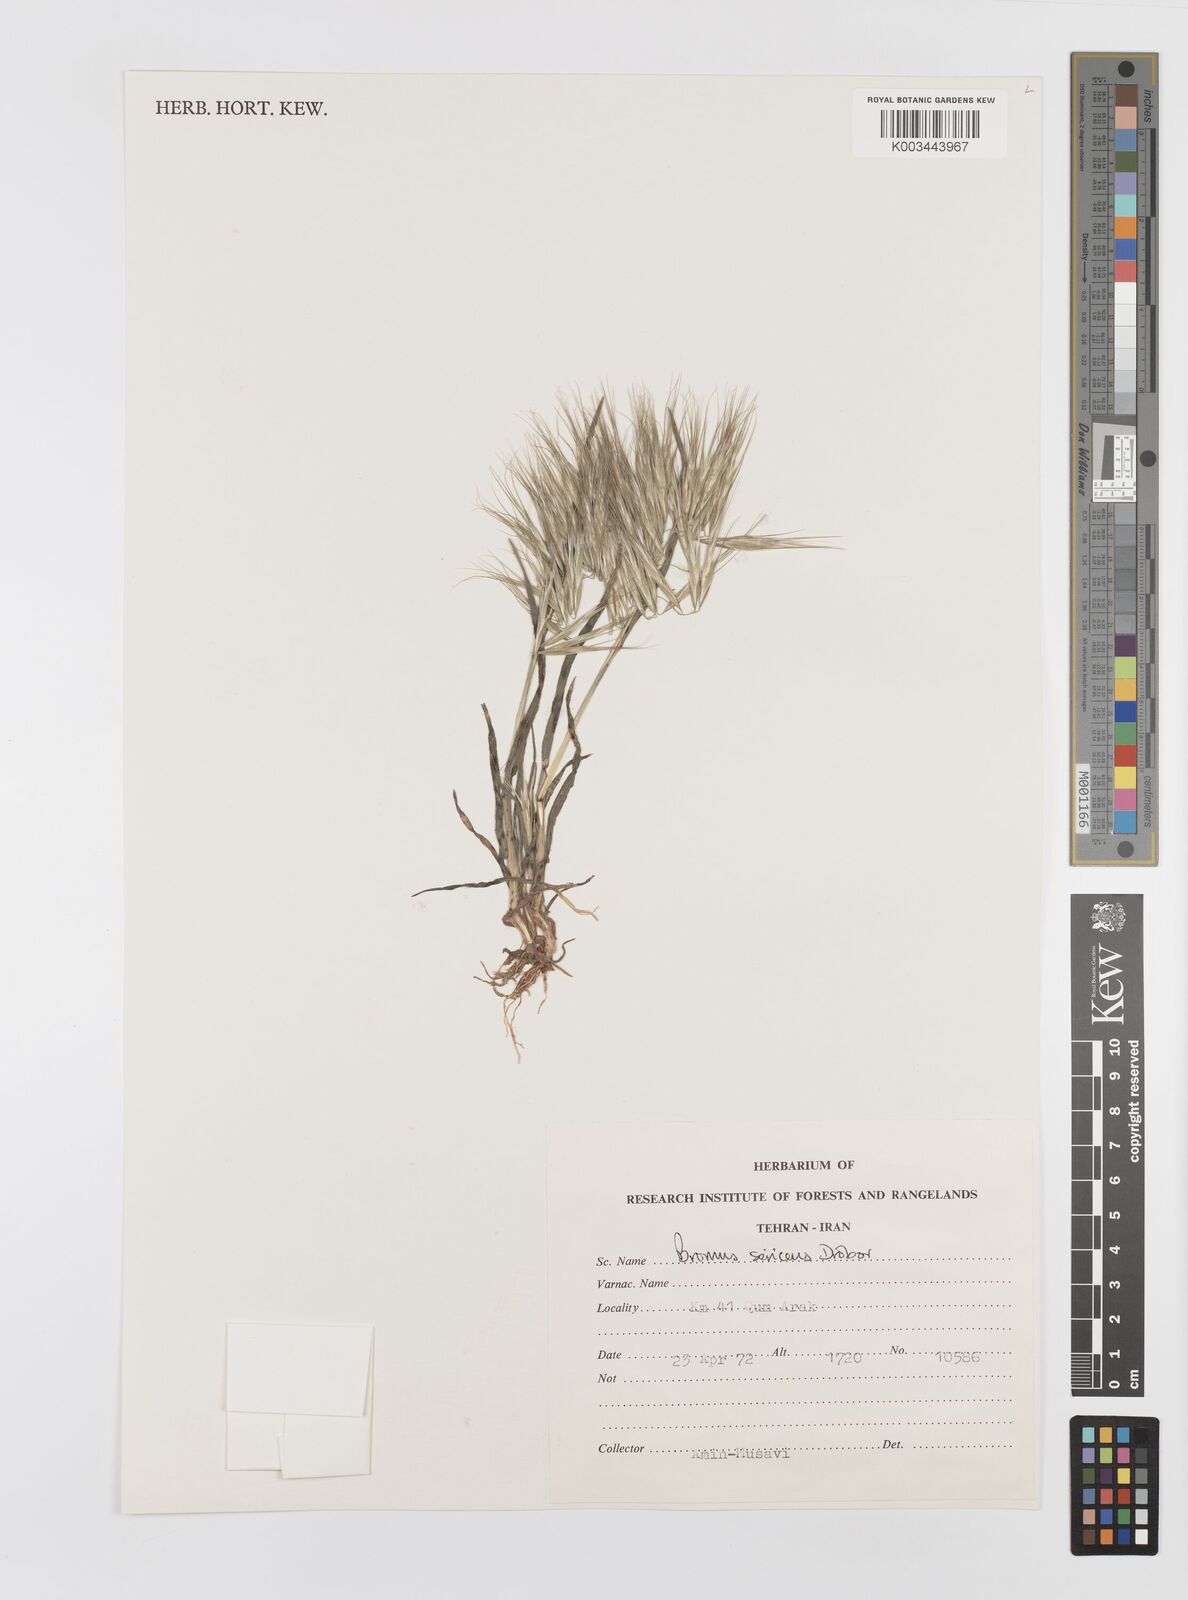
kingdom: Plantae
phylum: Tracheophyta
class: Liliopsida
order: Poales
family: Poaceae
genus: Bromus
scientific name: Bromus moeszii
